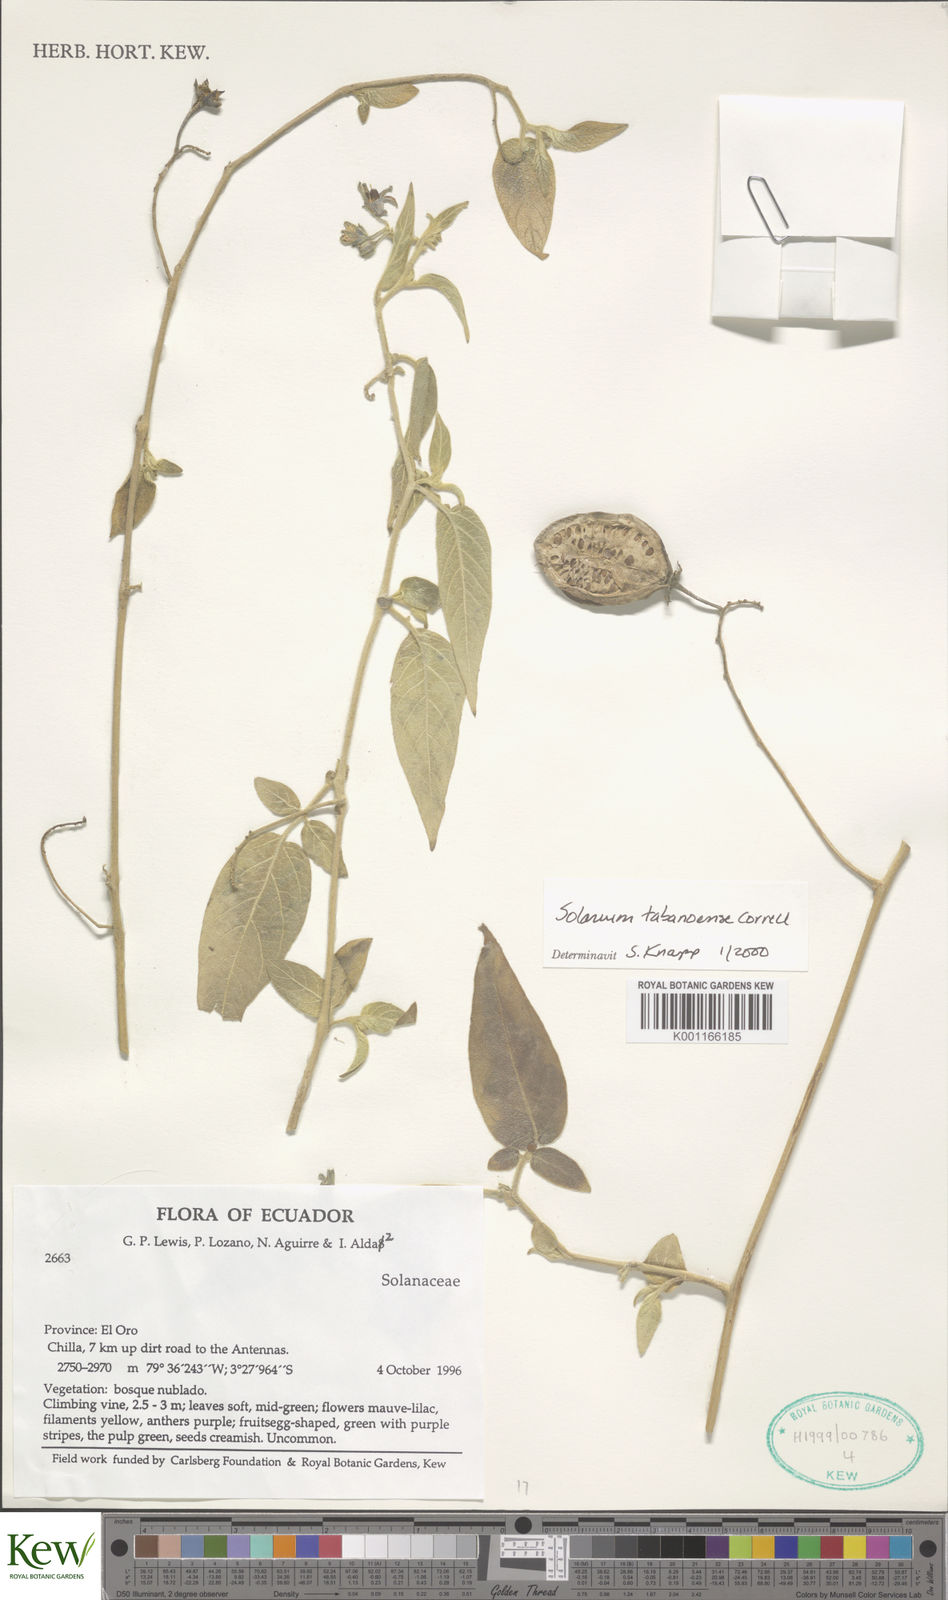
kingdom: Plantae
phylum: Tracheophyta
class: Magnoliopsida
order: Solanales
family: Solanaceae
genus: Solanum
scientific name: Solanum tabanoense
